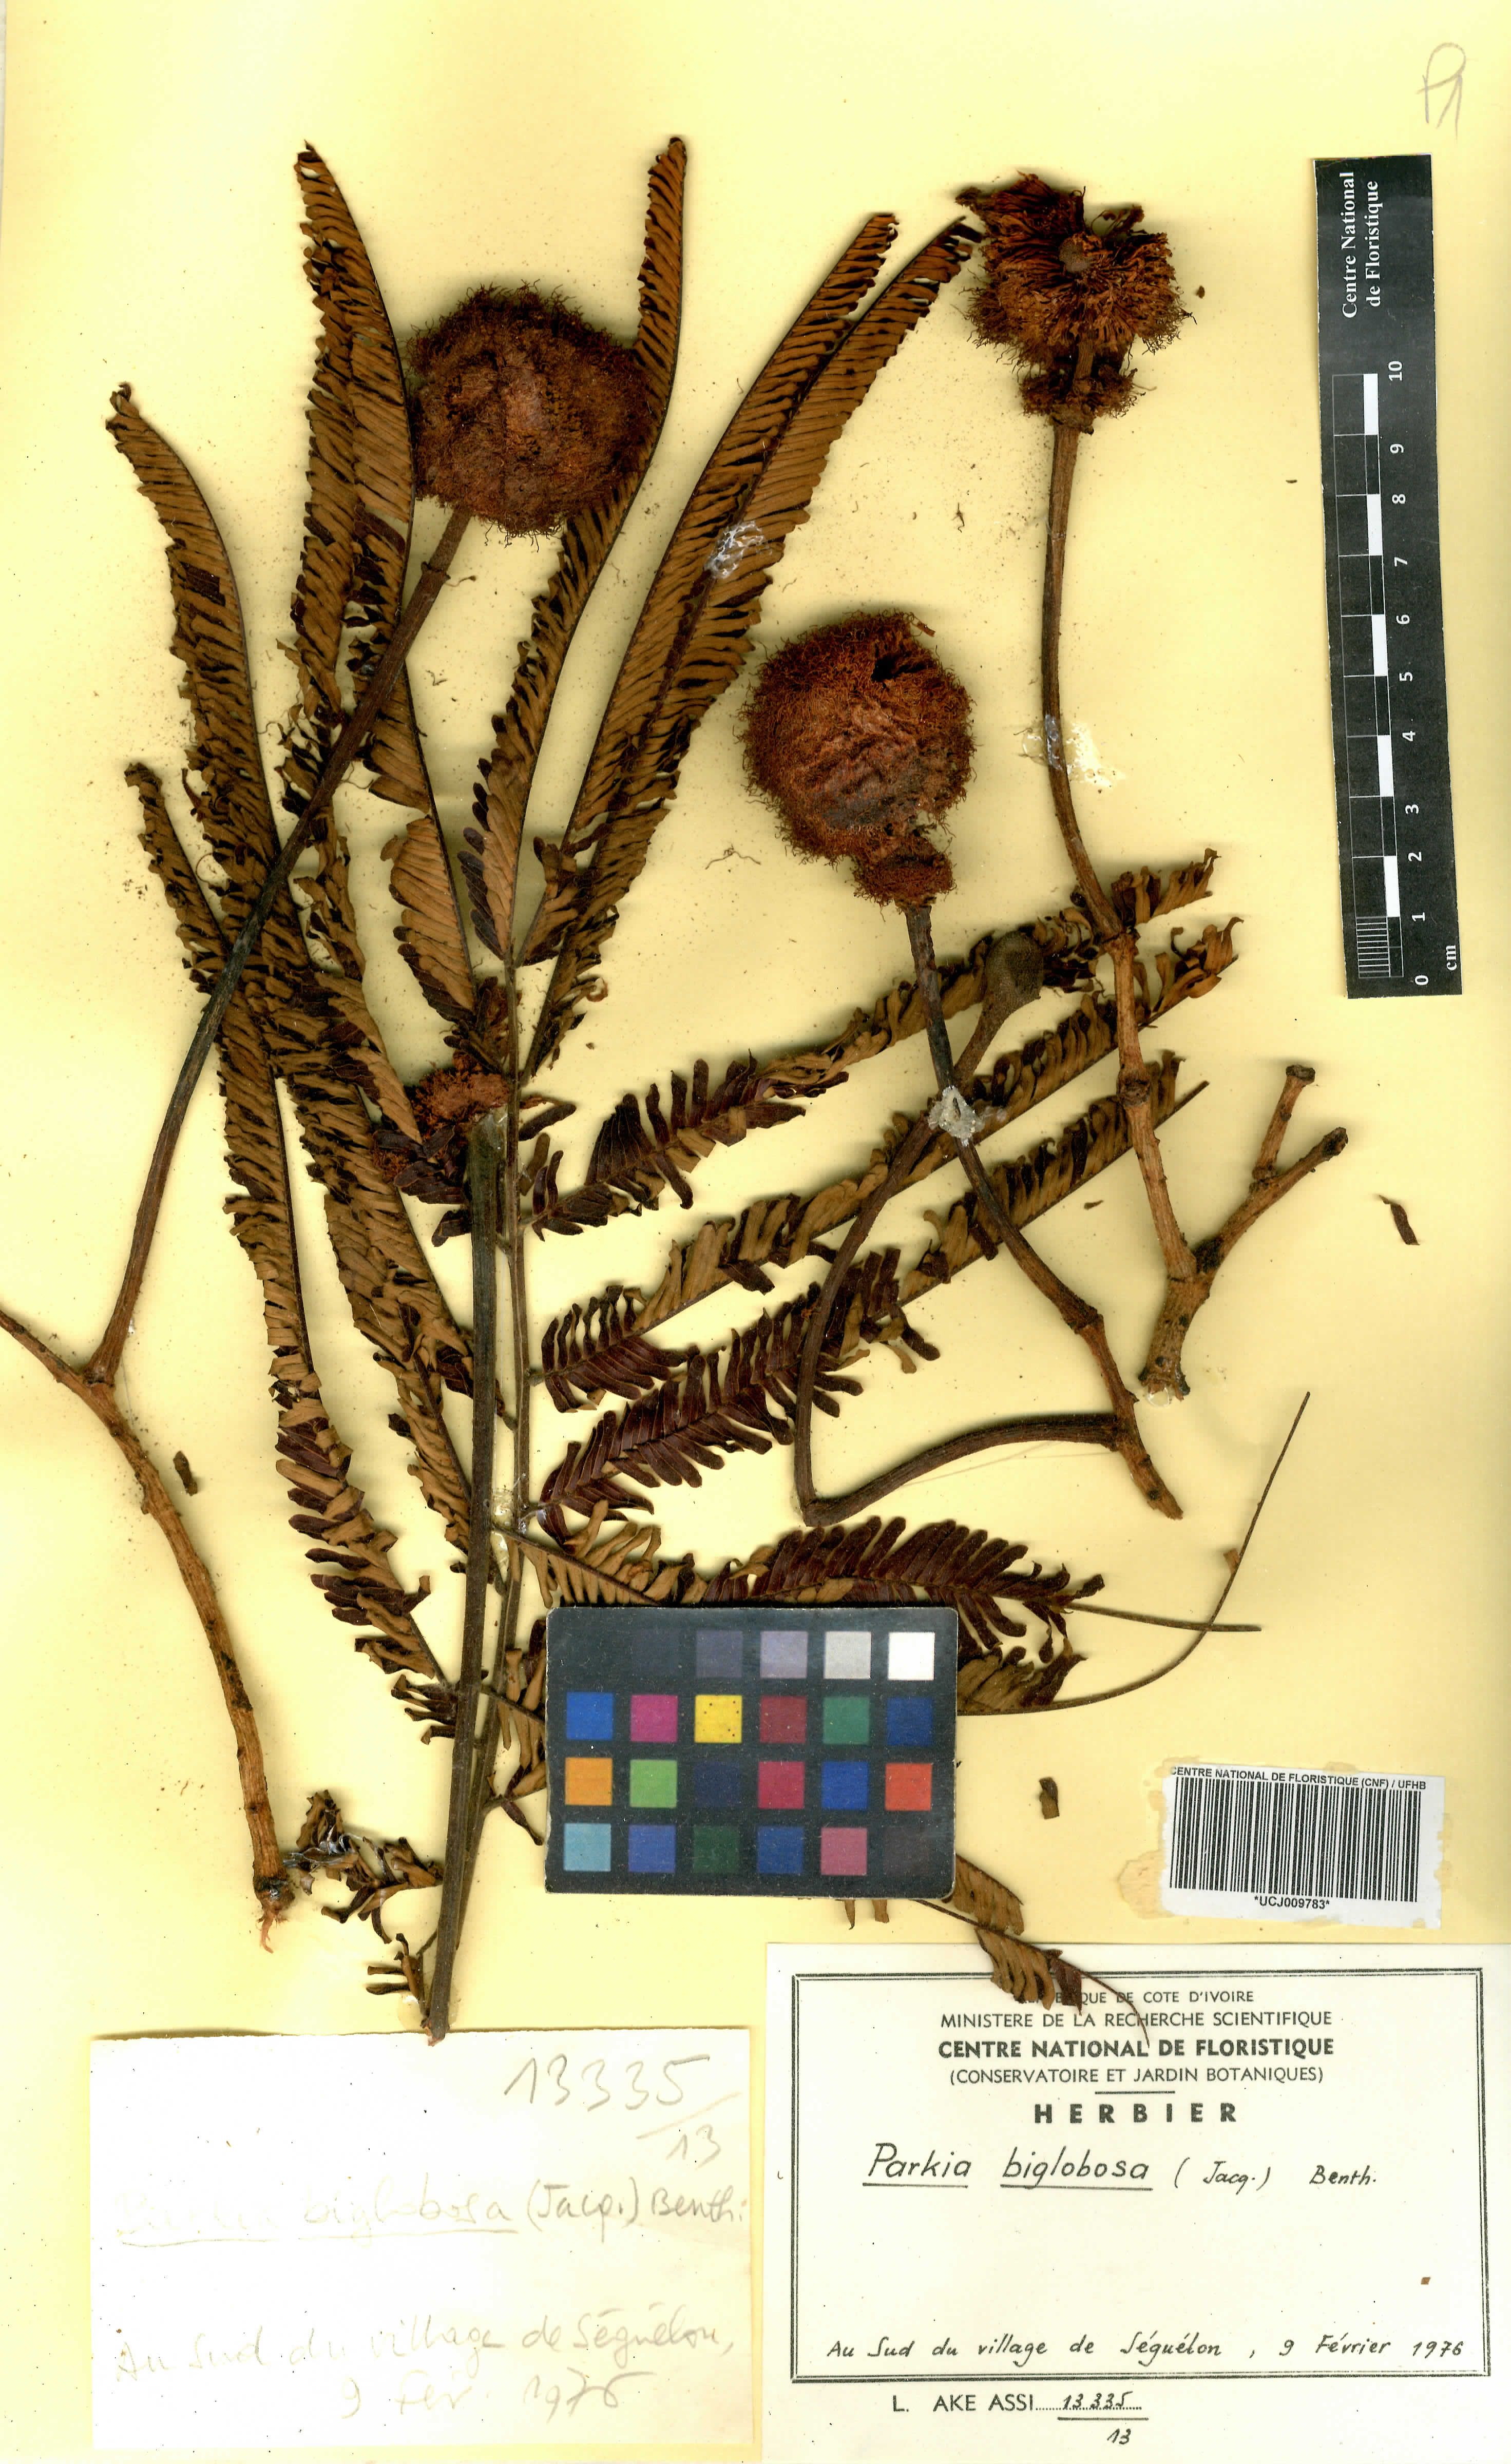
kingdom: Plantae
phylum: Tracheophyta
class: Magnoliopsida
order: Fabales
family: Fabaceae
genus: Parkia
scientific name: Parkia timoriana
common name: Legume
